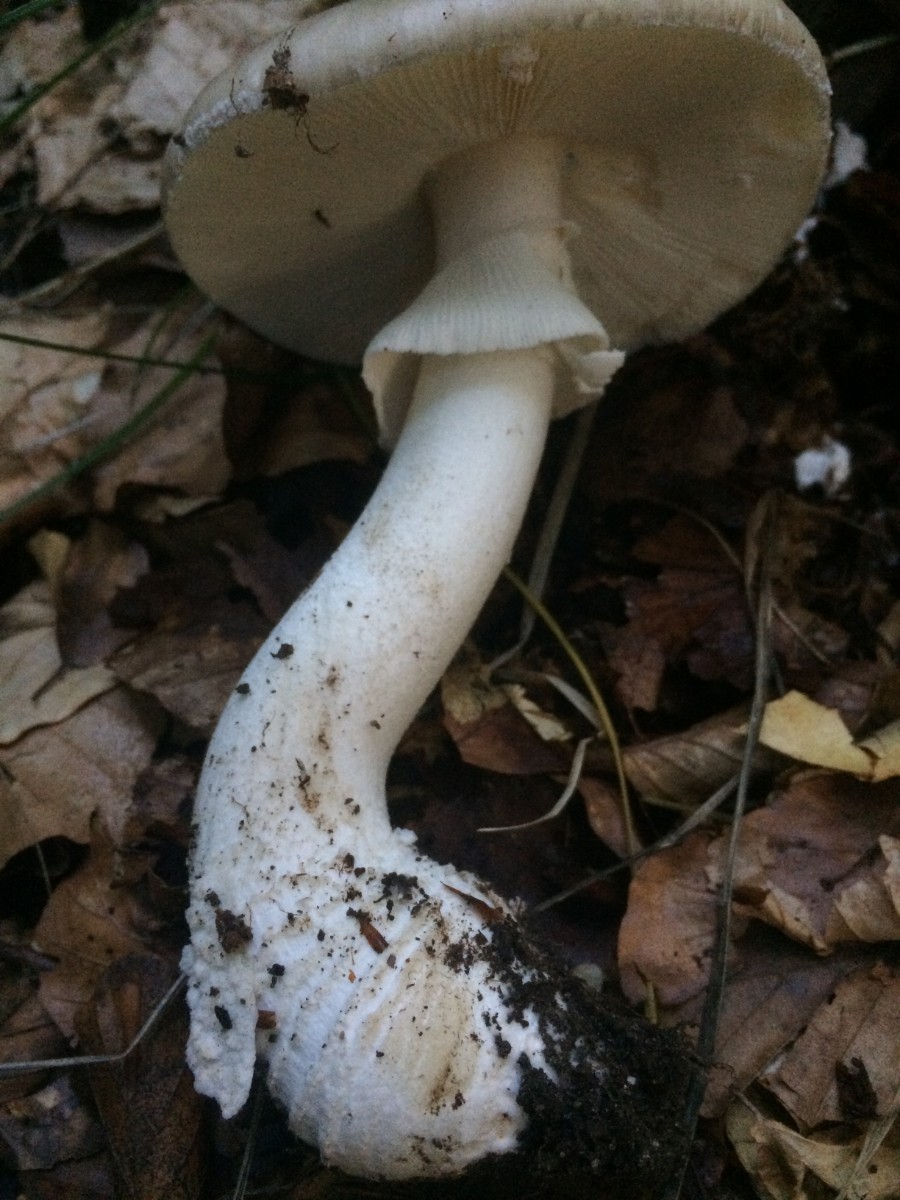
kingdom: Fungi
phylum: Basidiomycota
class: Agaricomycetes
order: Agaricales
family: Amanitaceae
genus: Amanita
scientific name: Amanita
